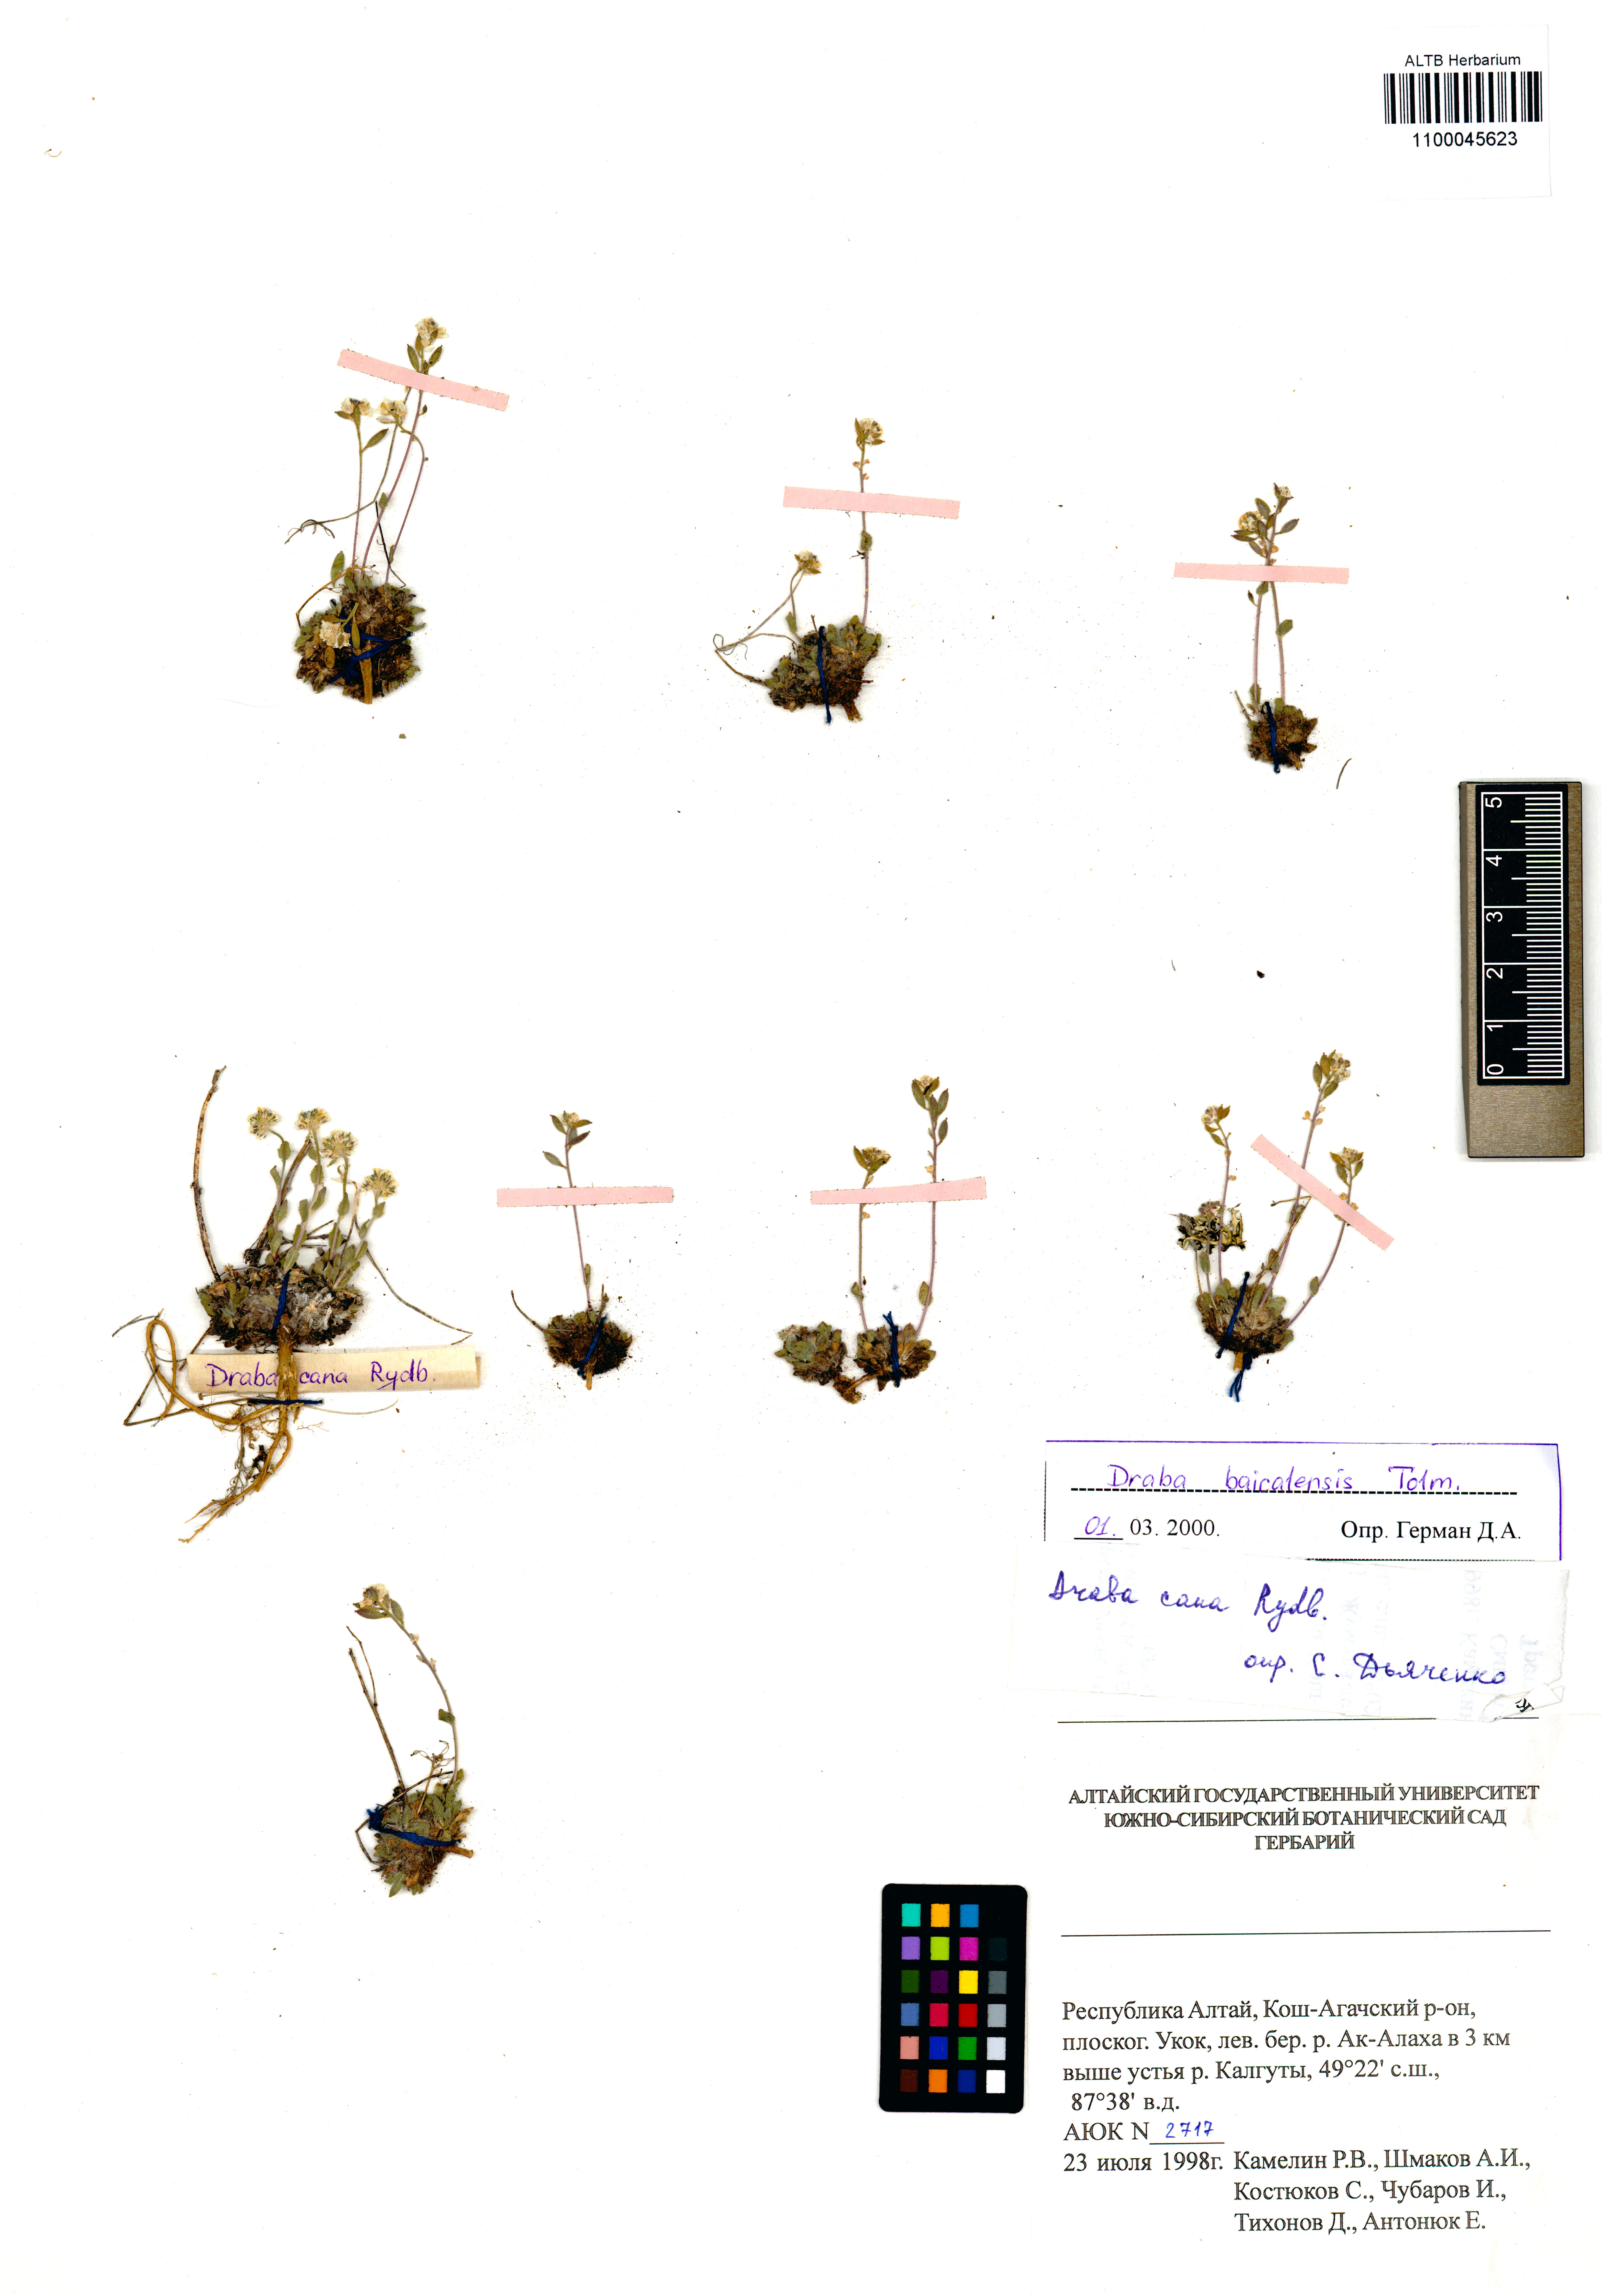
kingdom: Plantae
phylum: Tracheophyta
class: Magnoliopsida
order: Brassicales
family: Brassicaceae
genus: Draba
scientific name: Draba baicalensis
